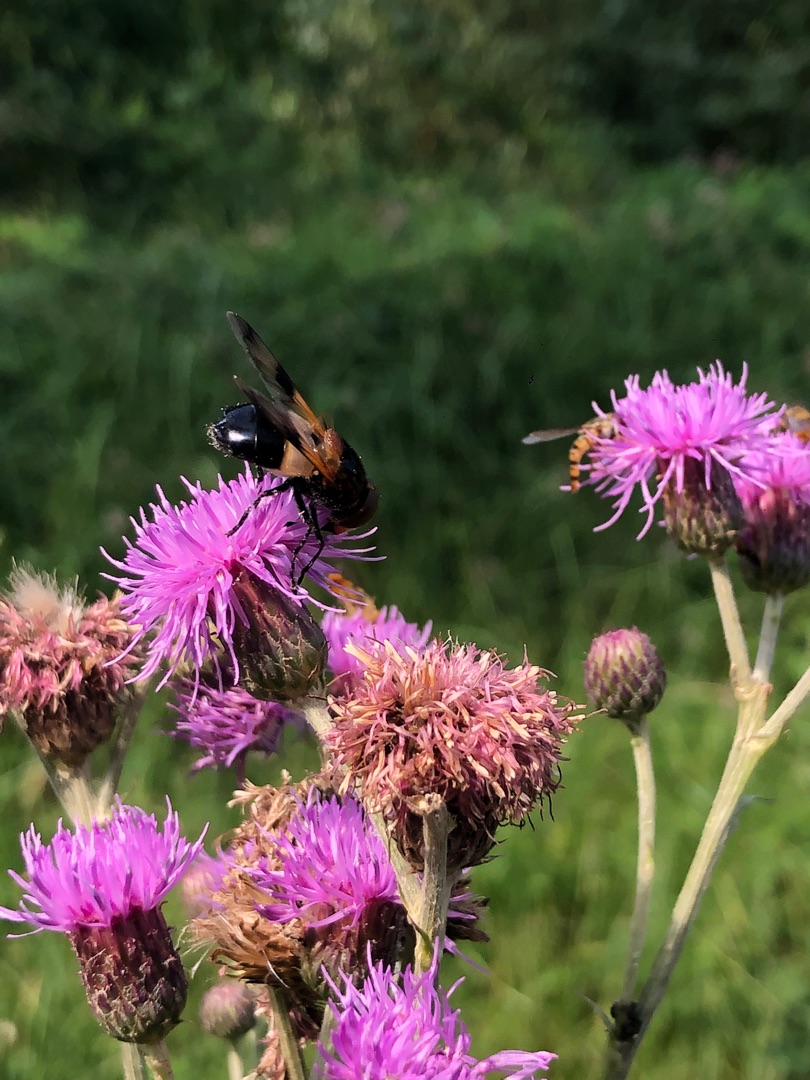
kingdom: Animalia
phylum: Arthropoda
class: Insecta
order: Diptera
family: Syrphidae
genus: Volucella
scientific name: Volucella pellucens
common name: Hvidbåndet humlesvirreflue
